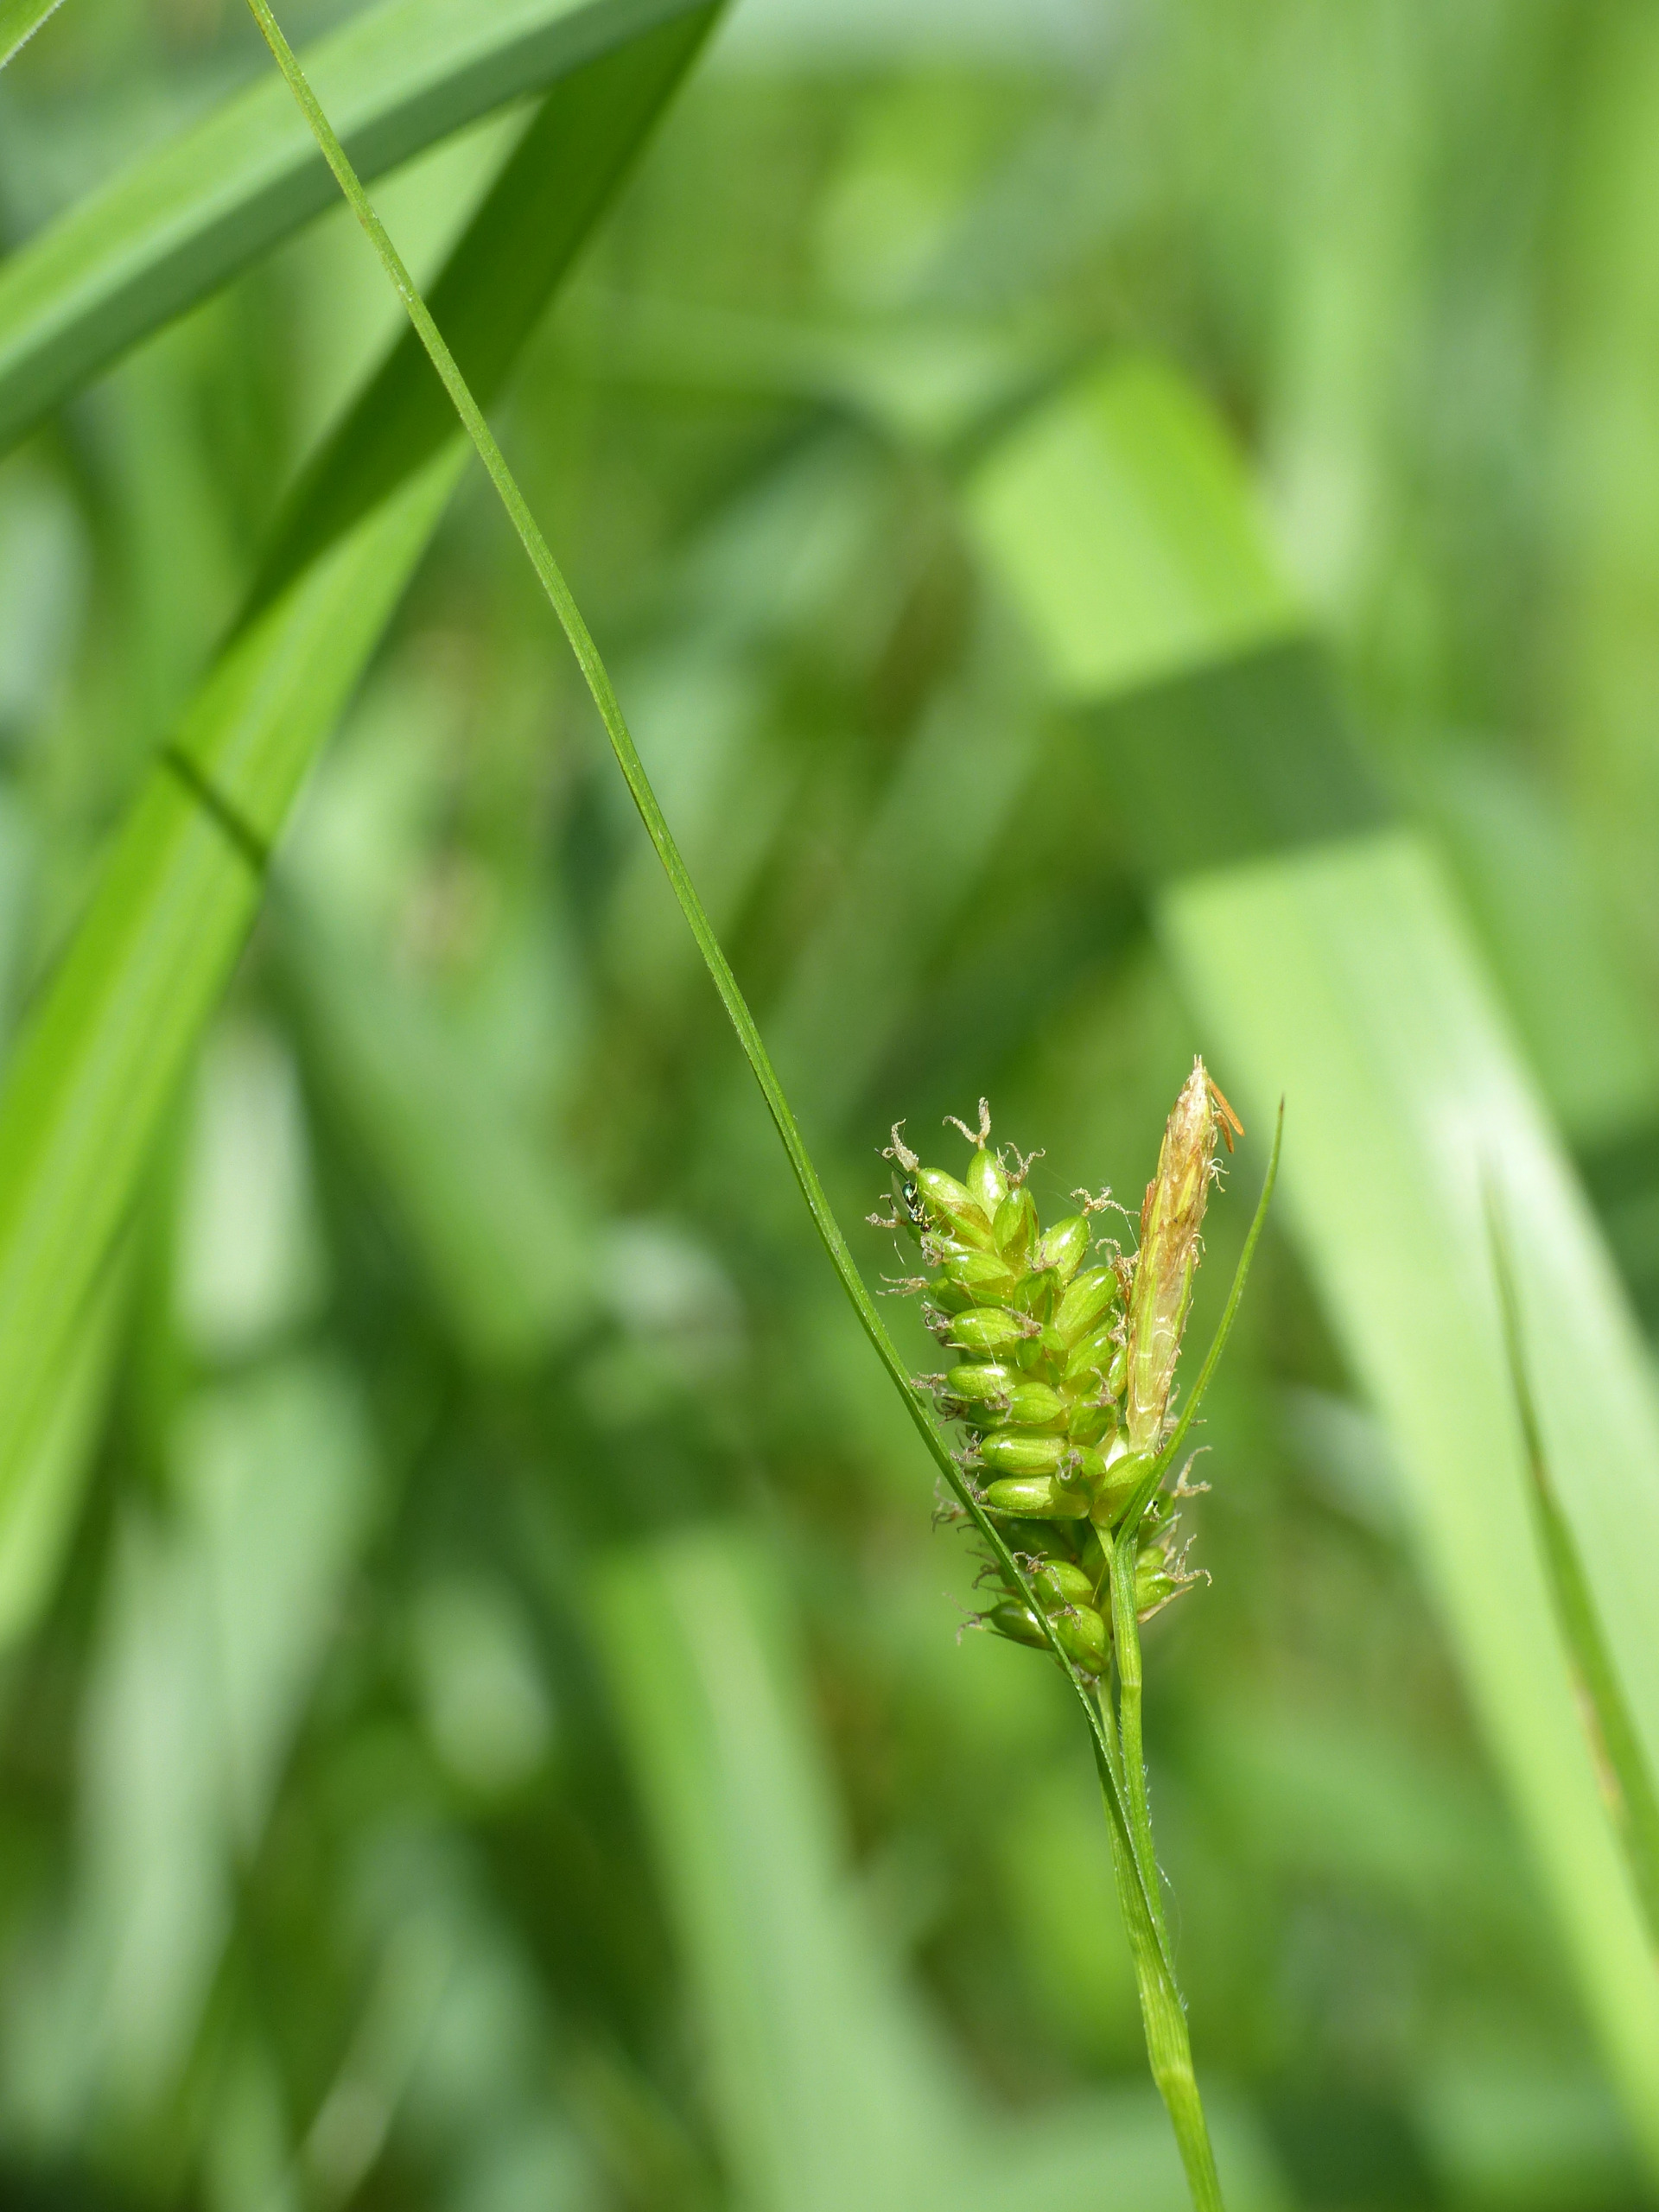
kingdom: Plantae
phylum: Tracheophyta
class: Liliopsida
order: Poales
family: Cyperaceae
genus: Carex
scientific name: Carex pallescens
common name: Bleg star
